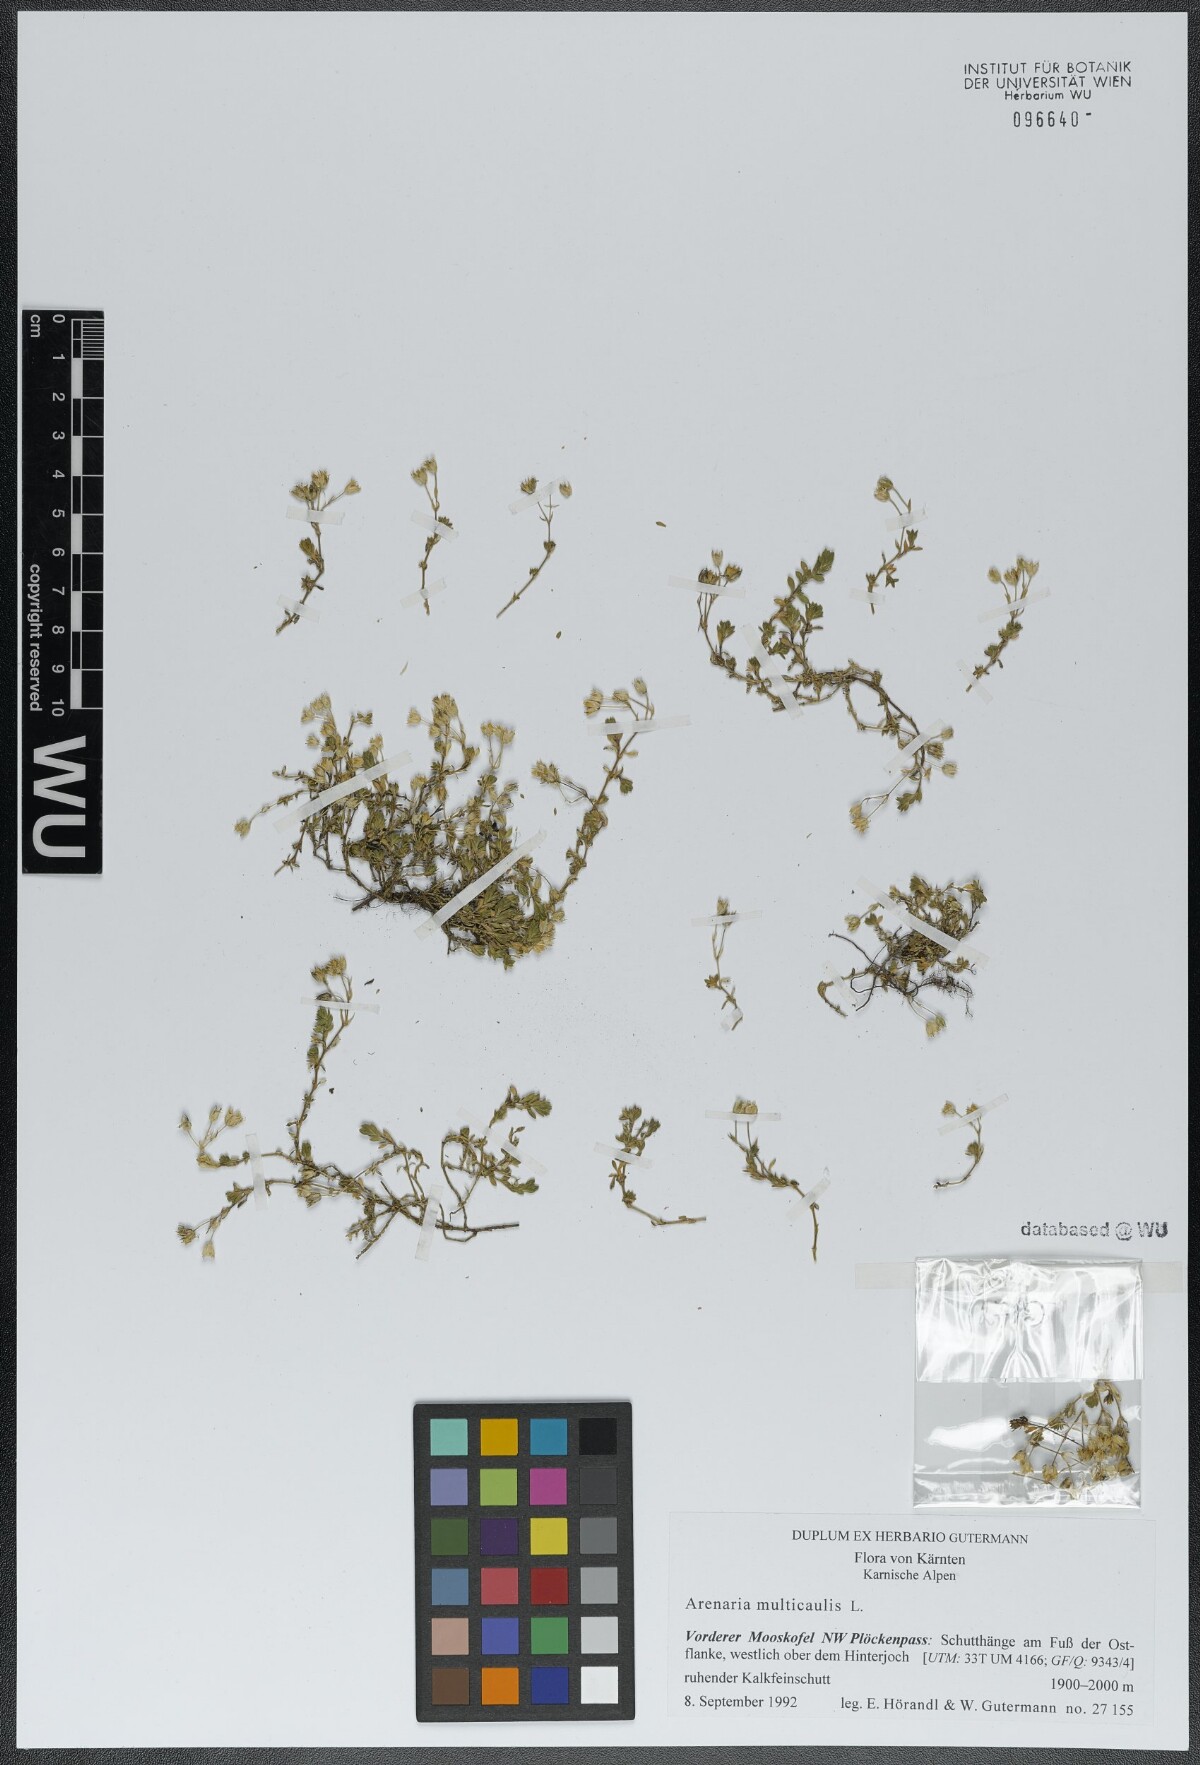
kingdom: Plantae
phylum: Tracheophyta
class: Magnoliopsida
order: Caryophyllales
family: Caryophyllaceae
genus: Arenaria
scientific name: Arenaria ciliata
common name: Fringed sandwort
